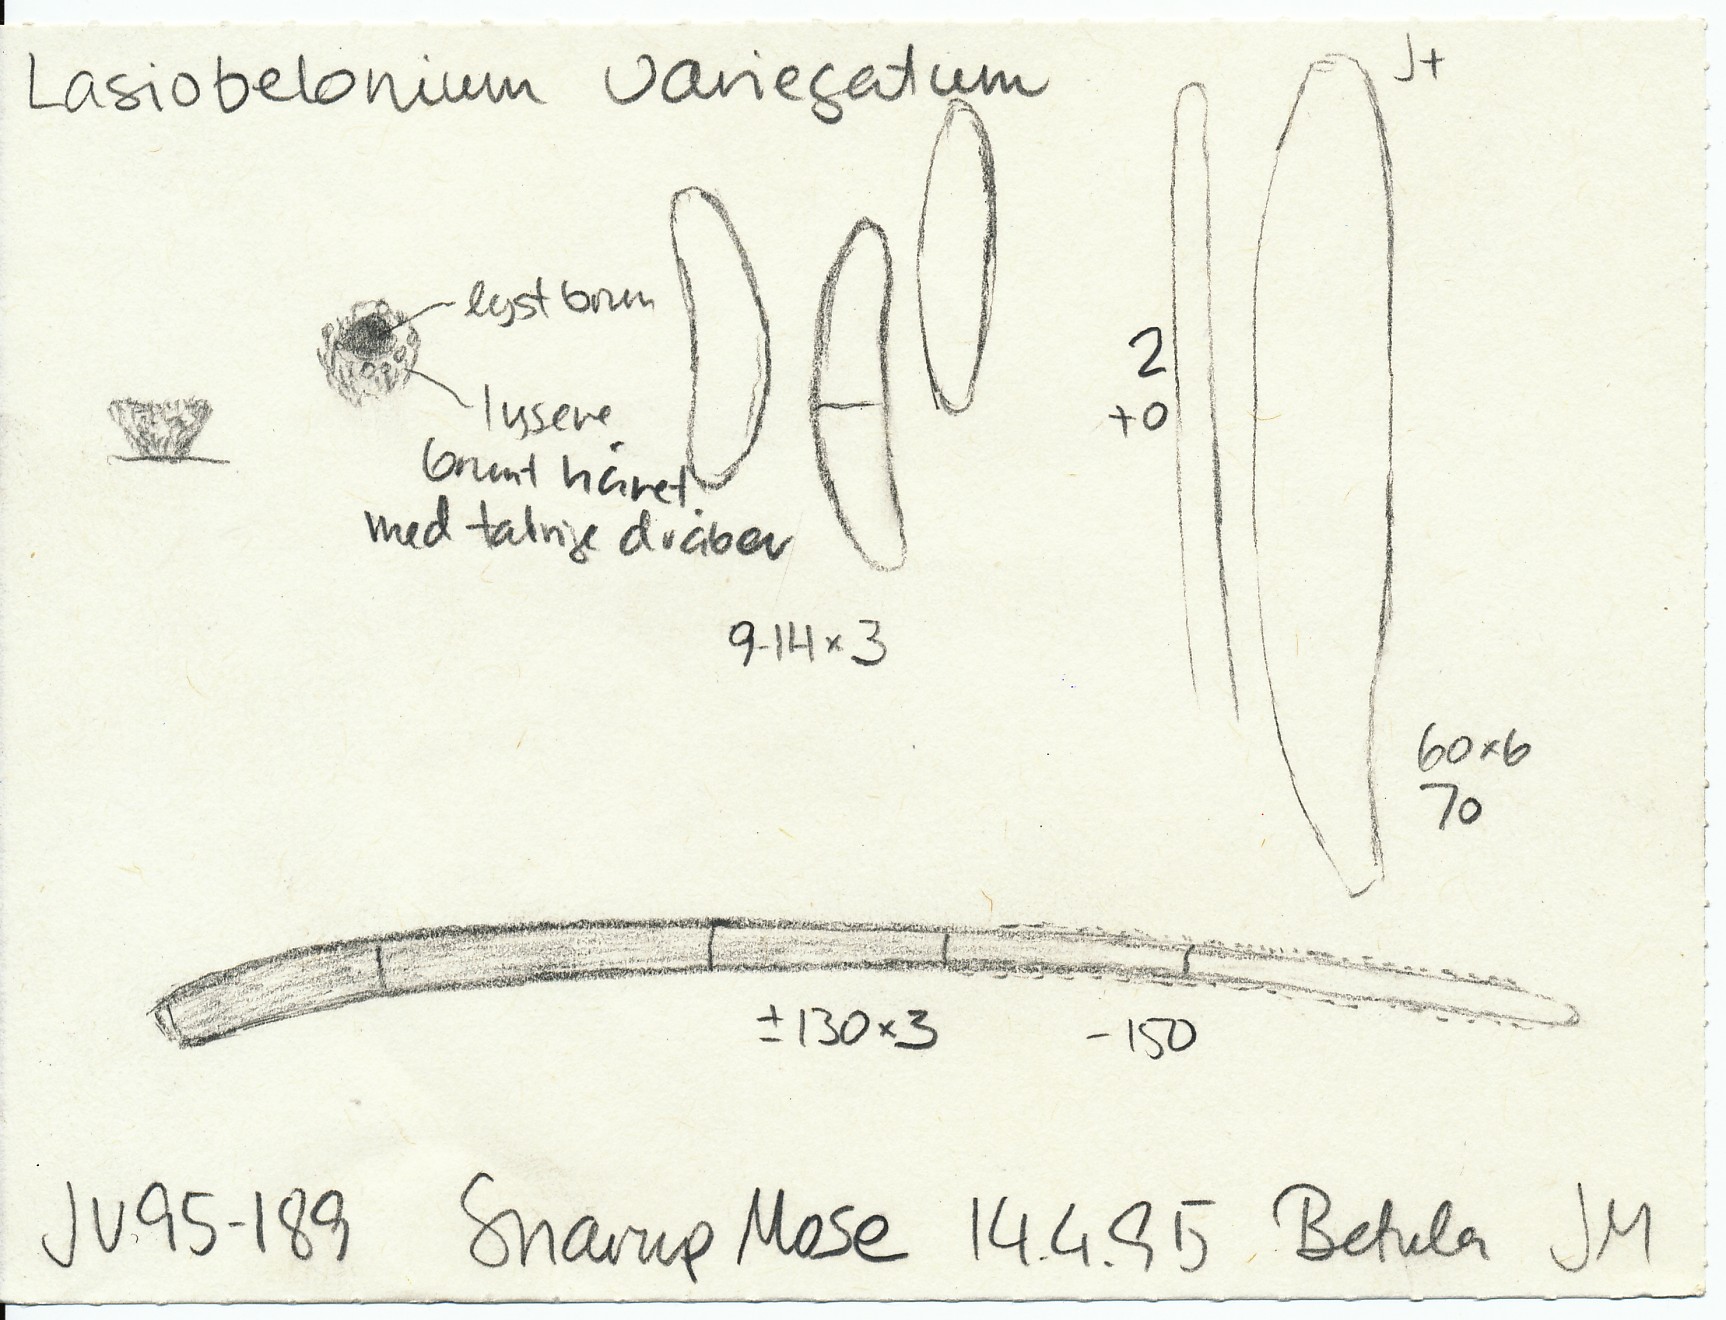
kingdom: Fungi
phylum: Ascomycota
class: Leotiomycetes
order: Helotiales
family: Solenopeziaceae
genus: Lasiobelonium
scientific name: Lasiobelonium variegatum
